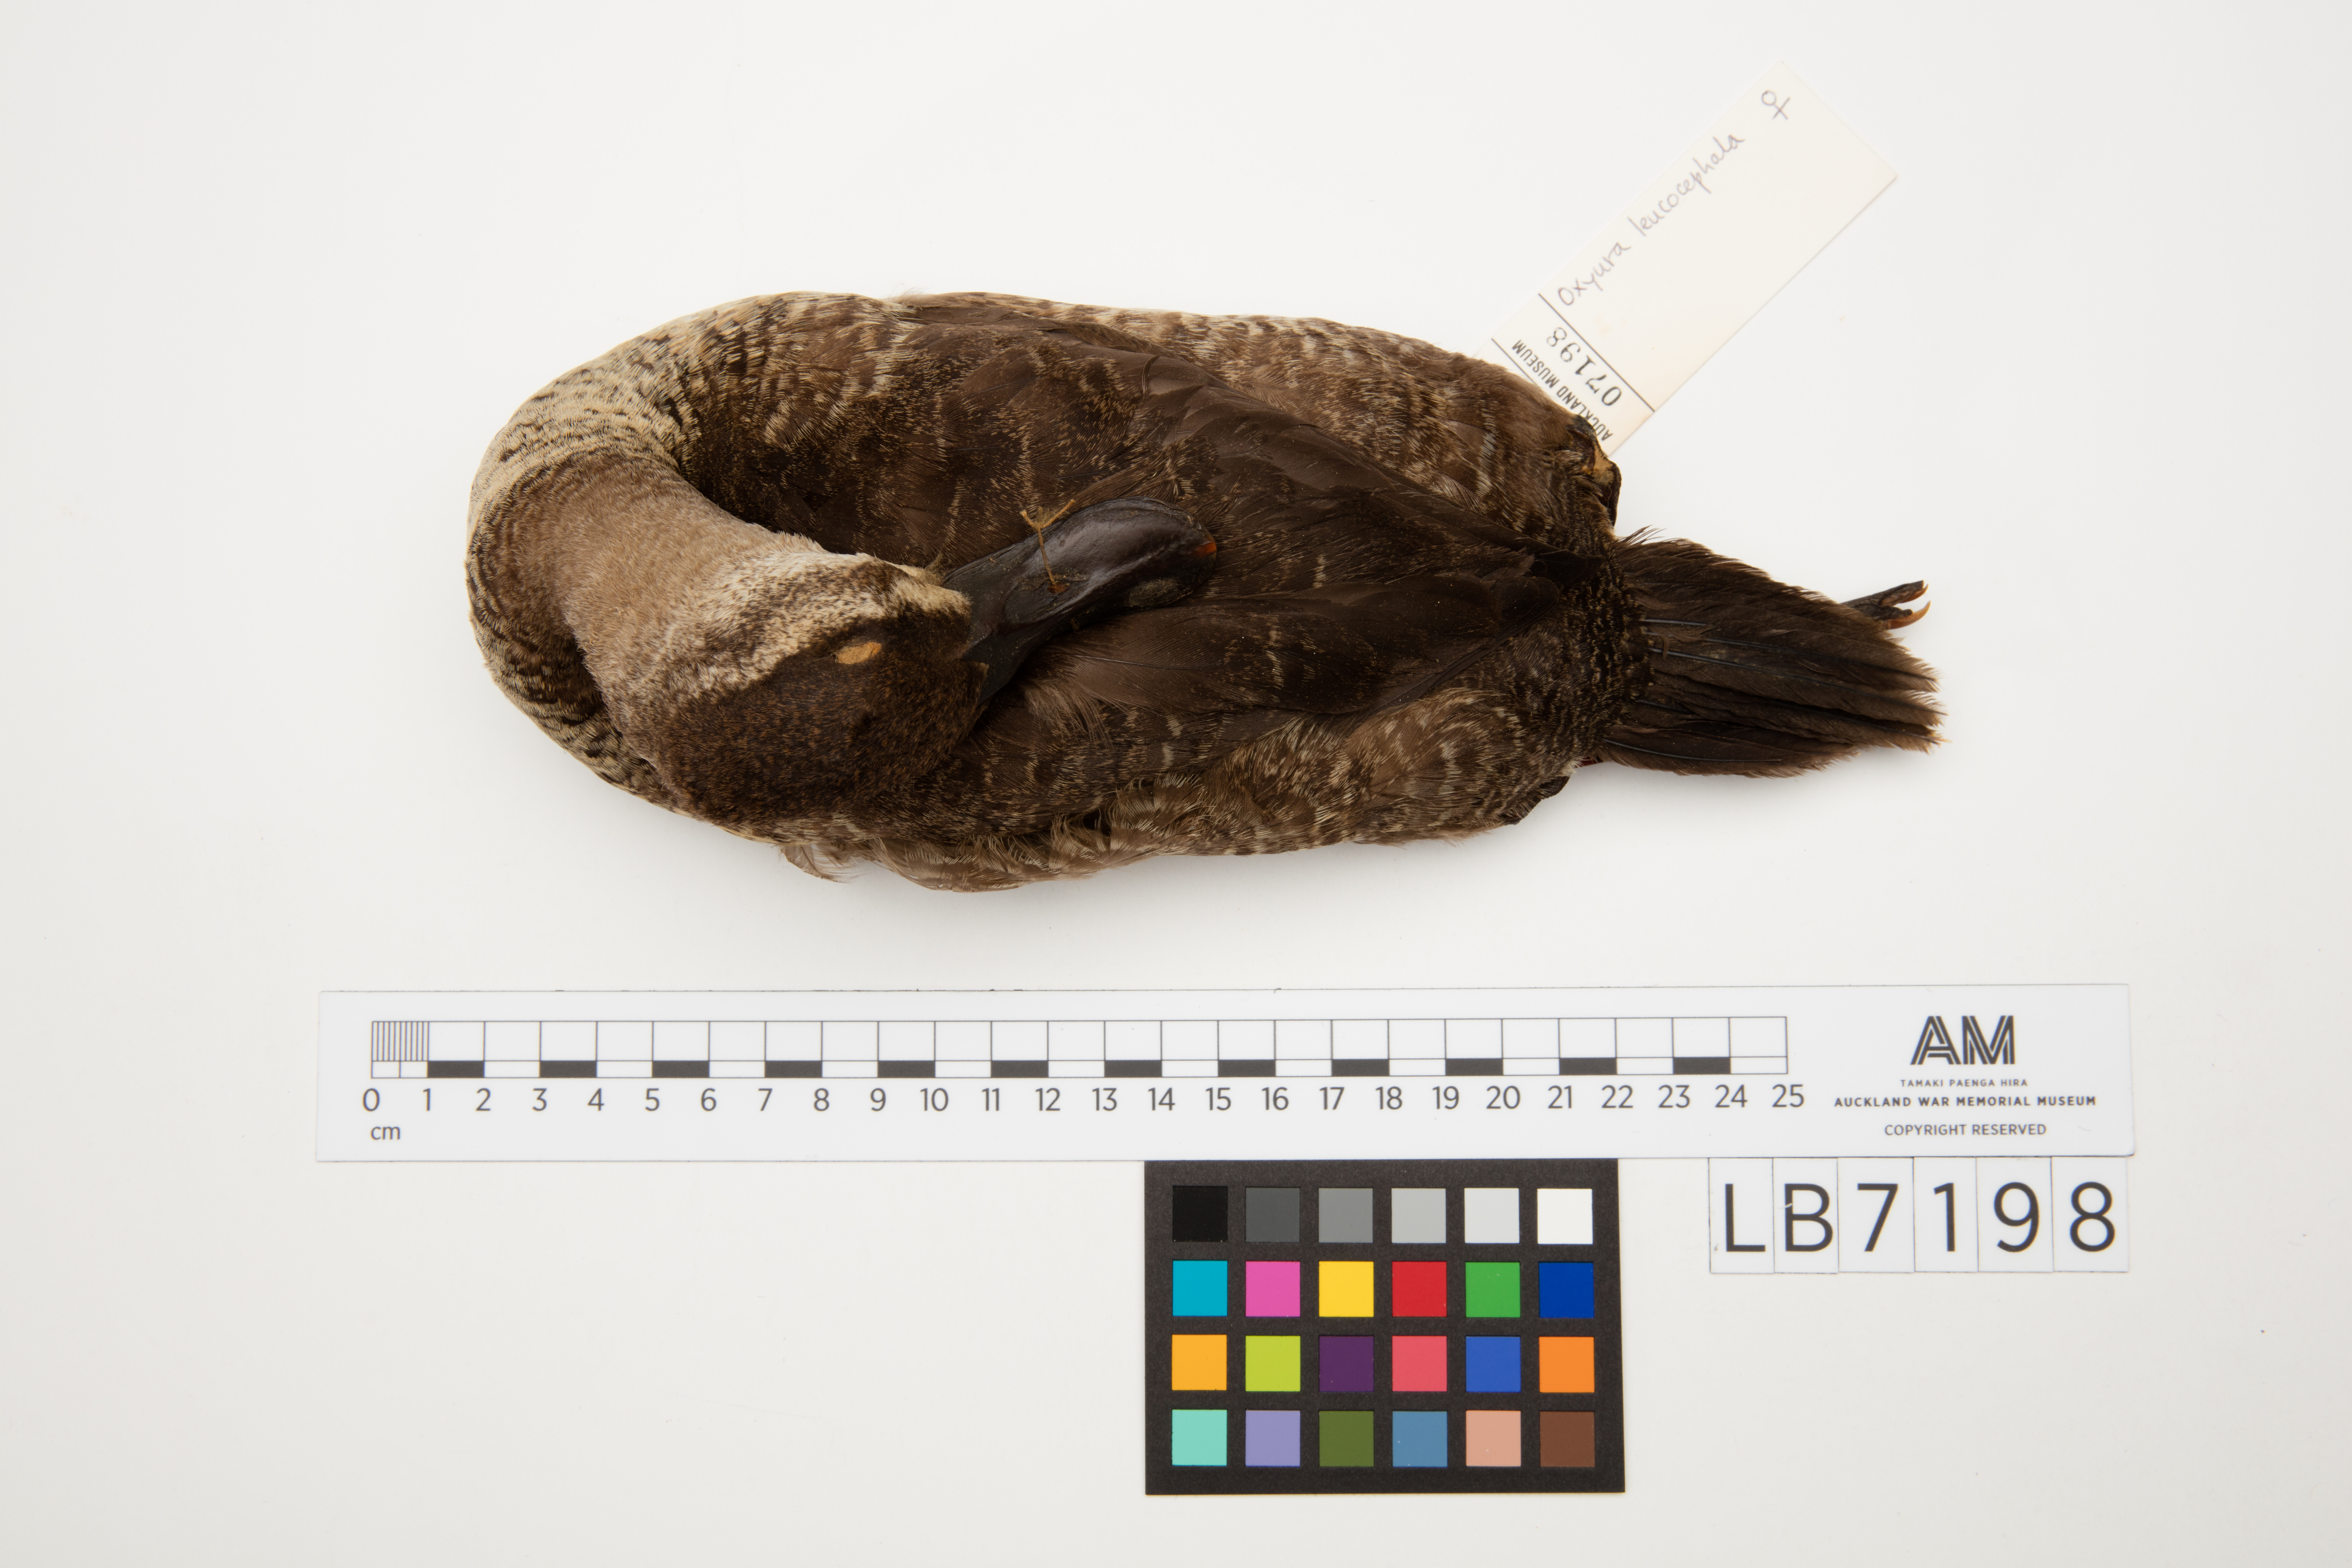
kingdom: Animalia
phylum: Chordata
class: Aves
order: Anseriformes
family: Anatidae
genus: Oxyura
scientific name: Oxyura leucocephala
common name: White-headed duck
